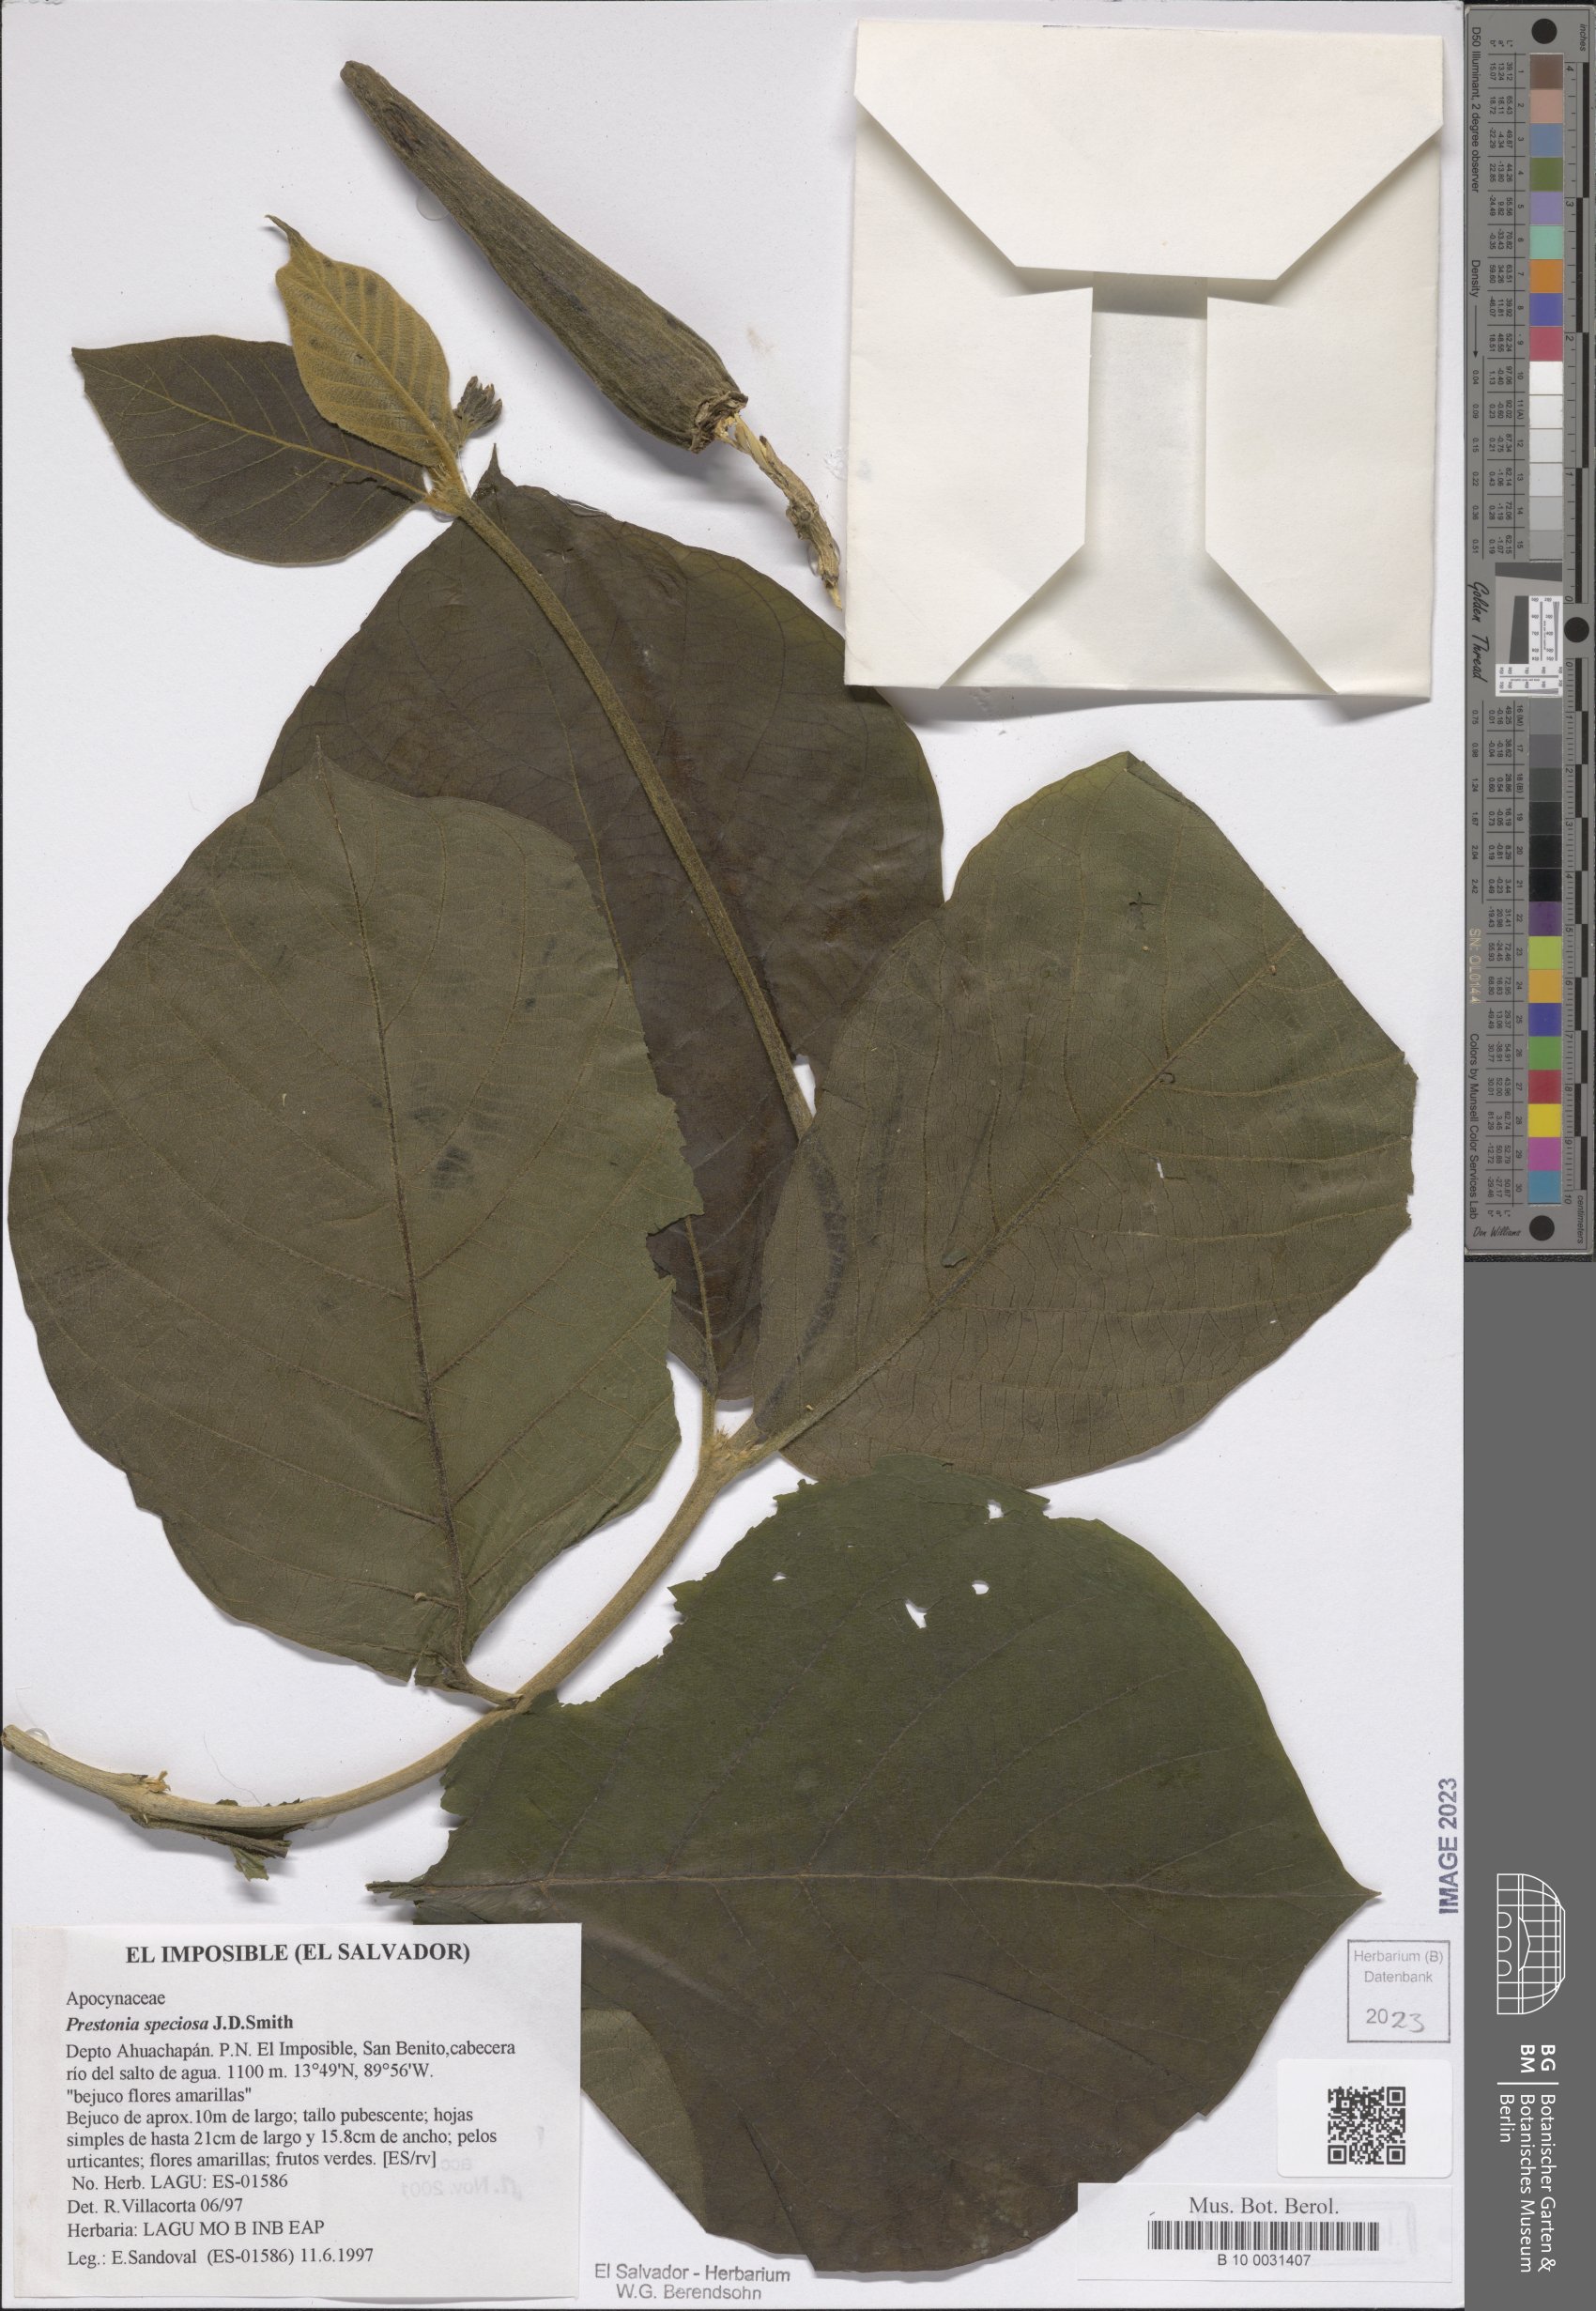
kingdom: Plantae
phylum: Tracheophyta
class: Magnoliopsida
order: Gentianales
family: Apocynaceae
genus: Prestonia
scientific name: Prestonia speciosa
